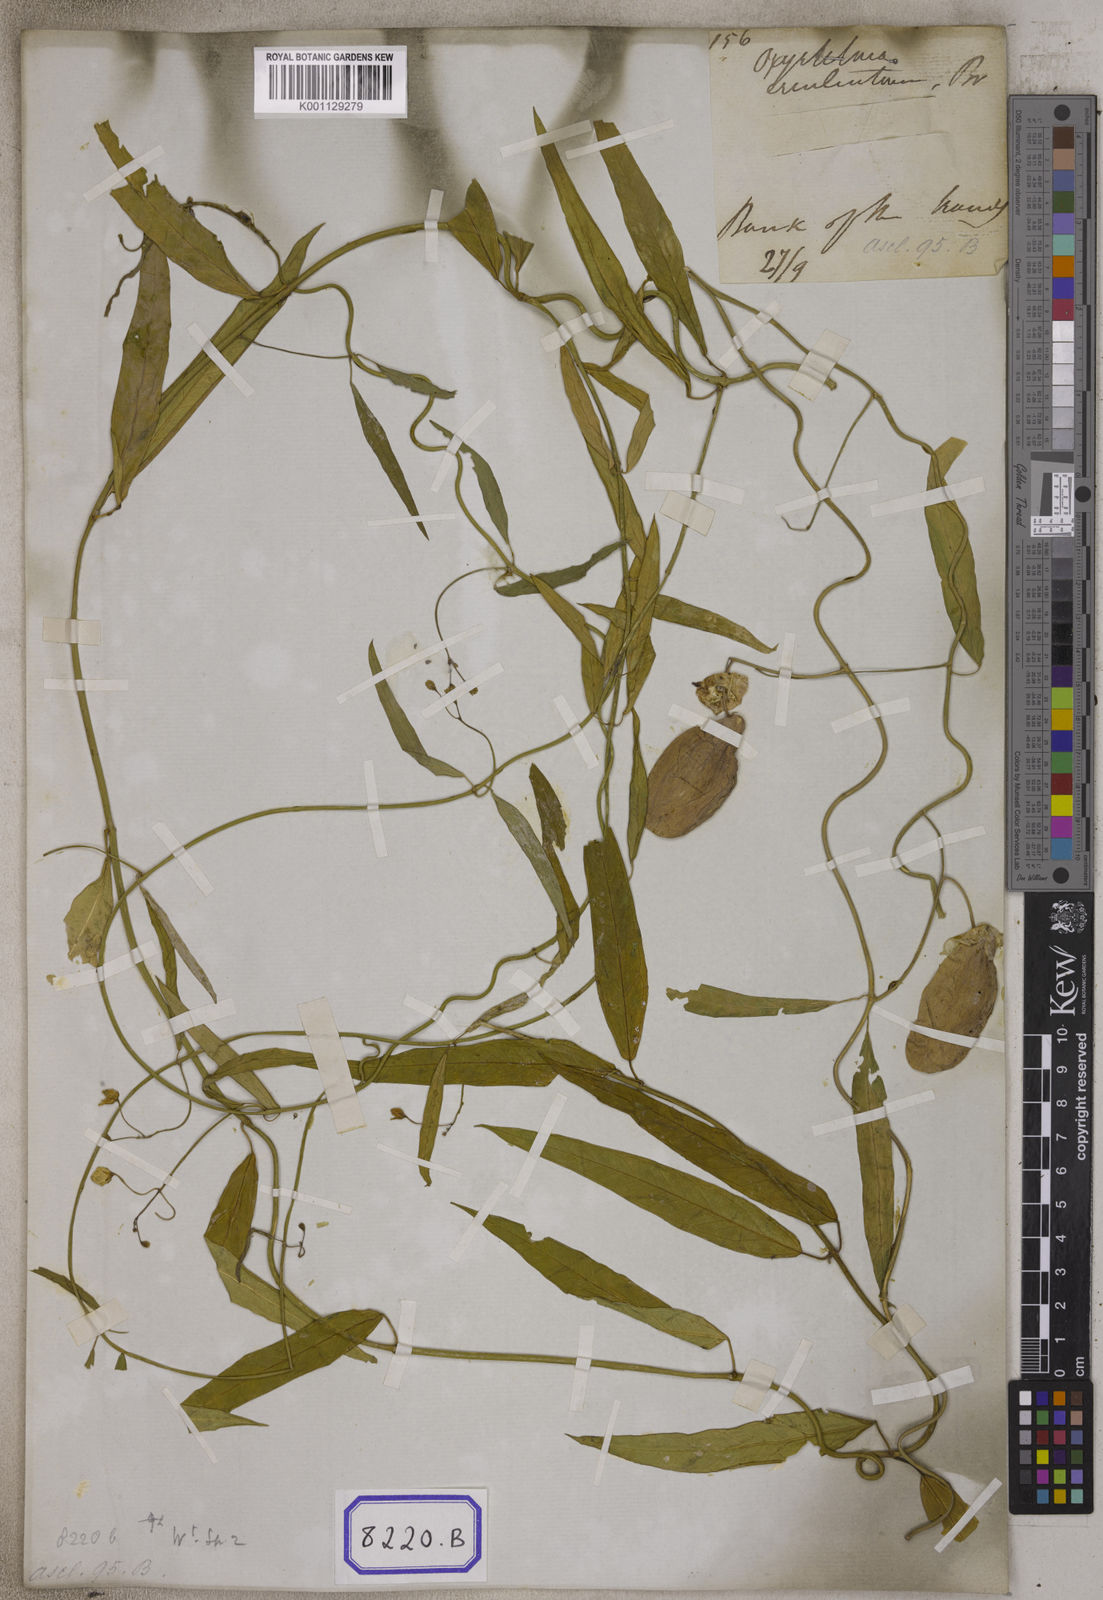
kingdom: Plantae
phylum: Tracheophyta
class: Magnoliopsida
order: Gentianales
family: Apocynaceae
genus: Oxystelma
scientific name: Oxystelma wallichii
